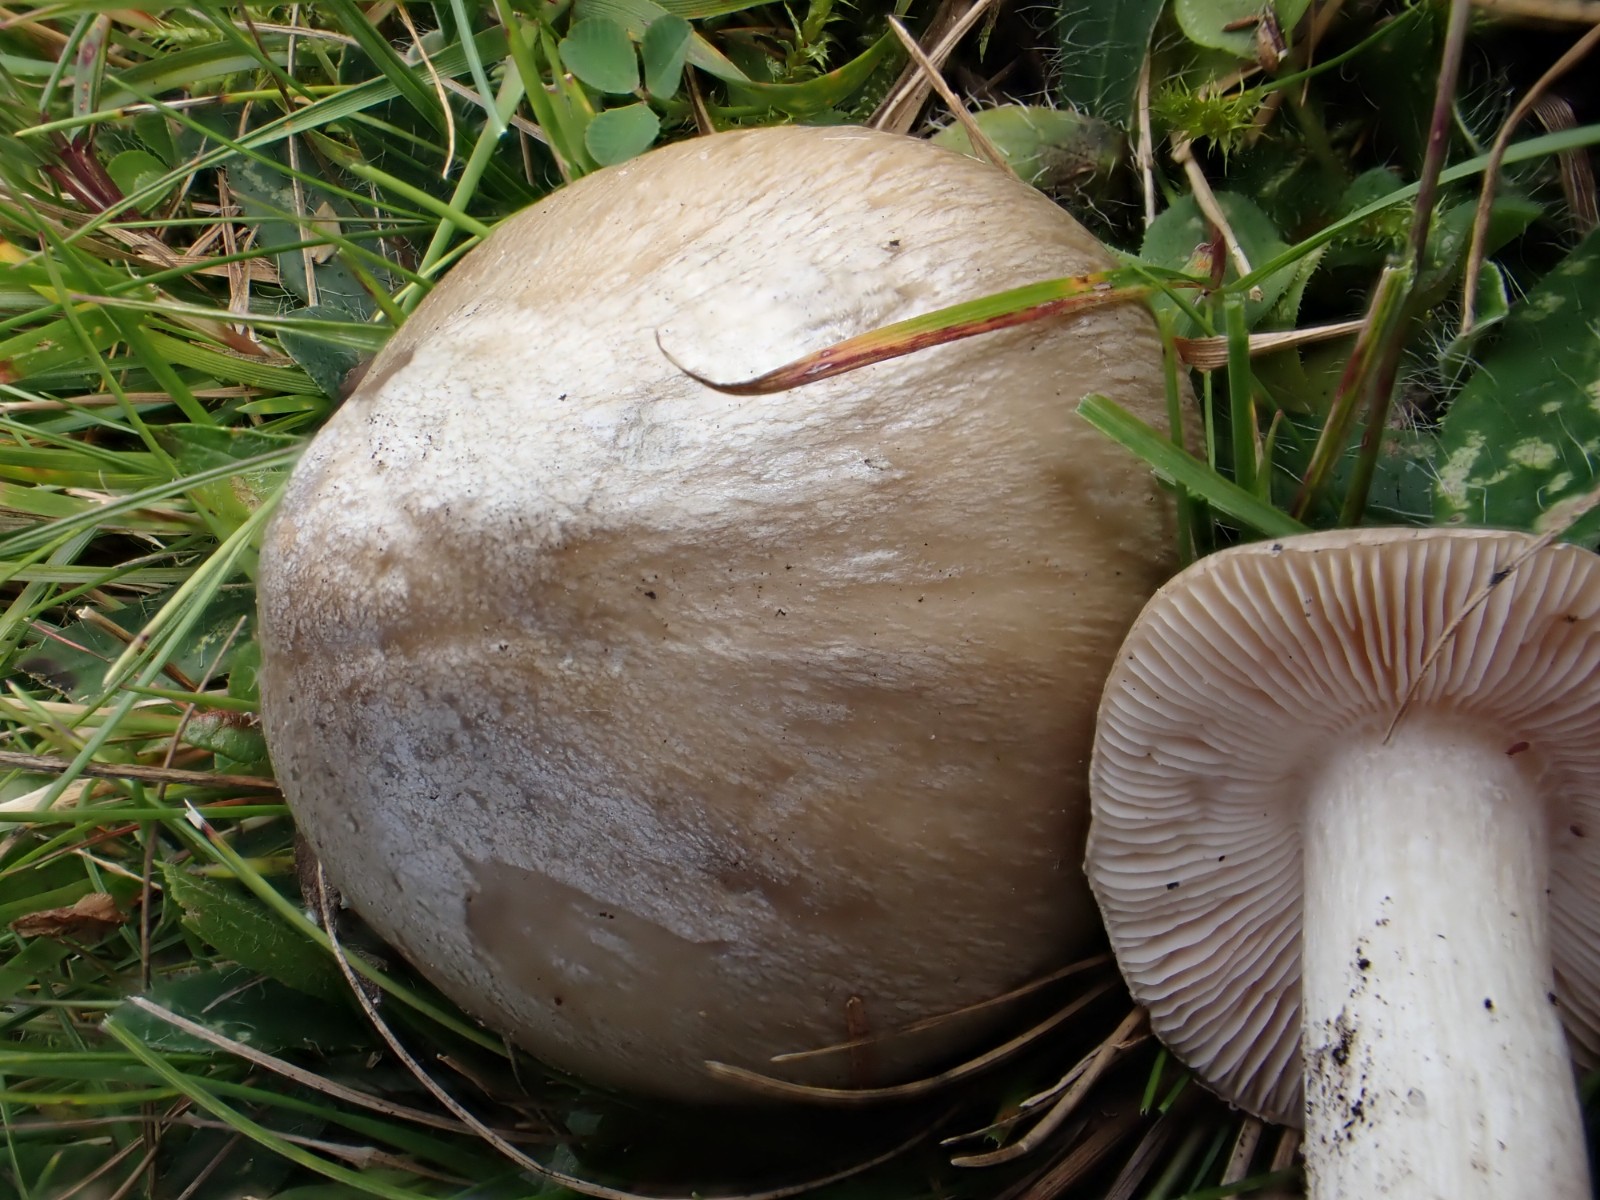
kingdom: Fungi
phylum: Basidiomycota
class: Agaricomycetes
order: Agaricales
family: Entolomataceae
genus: Entoloma
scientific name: Entoloma prunuloides
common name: mel-rødblad
